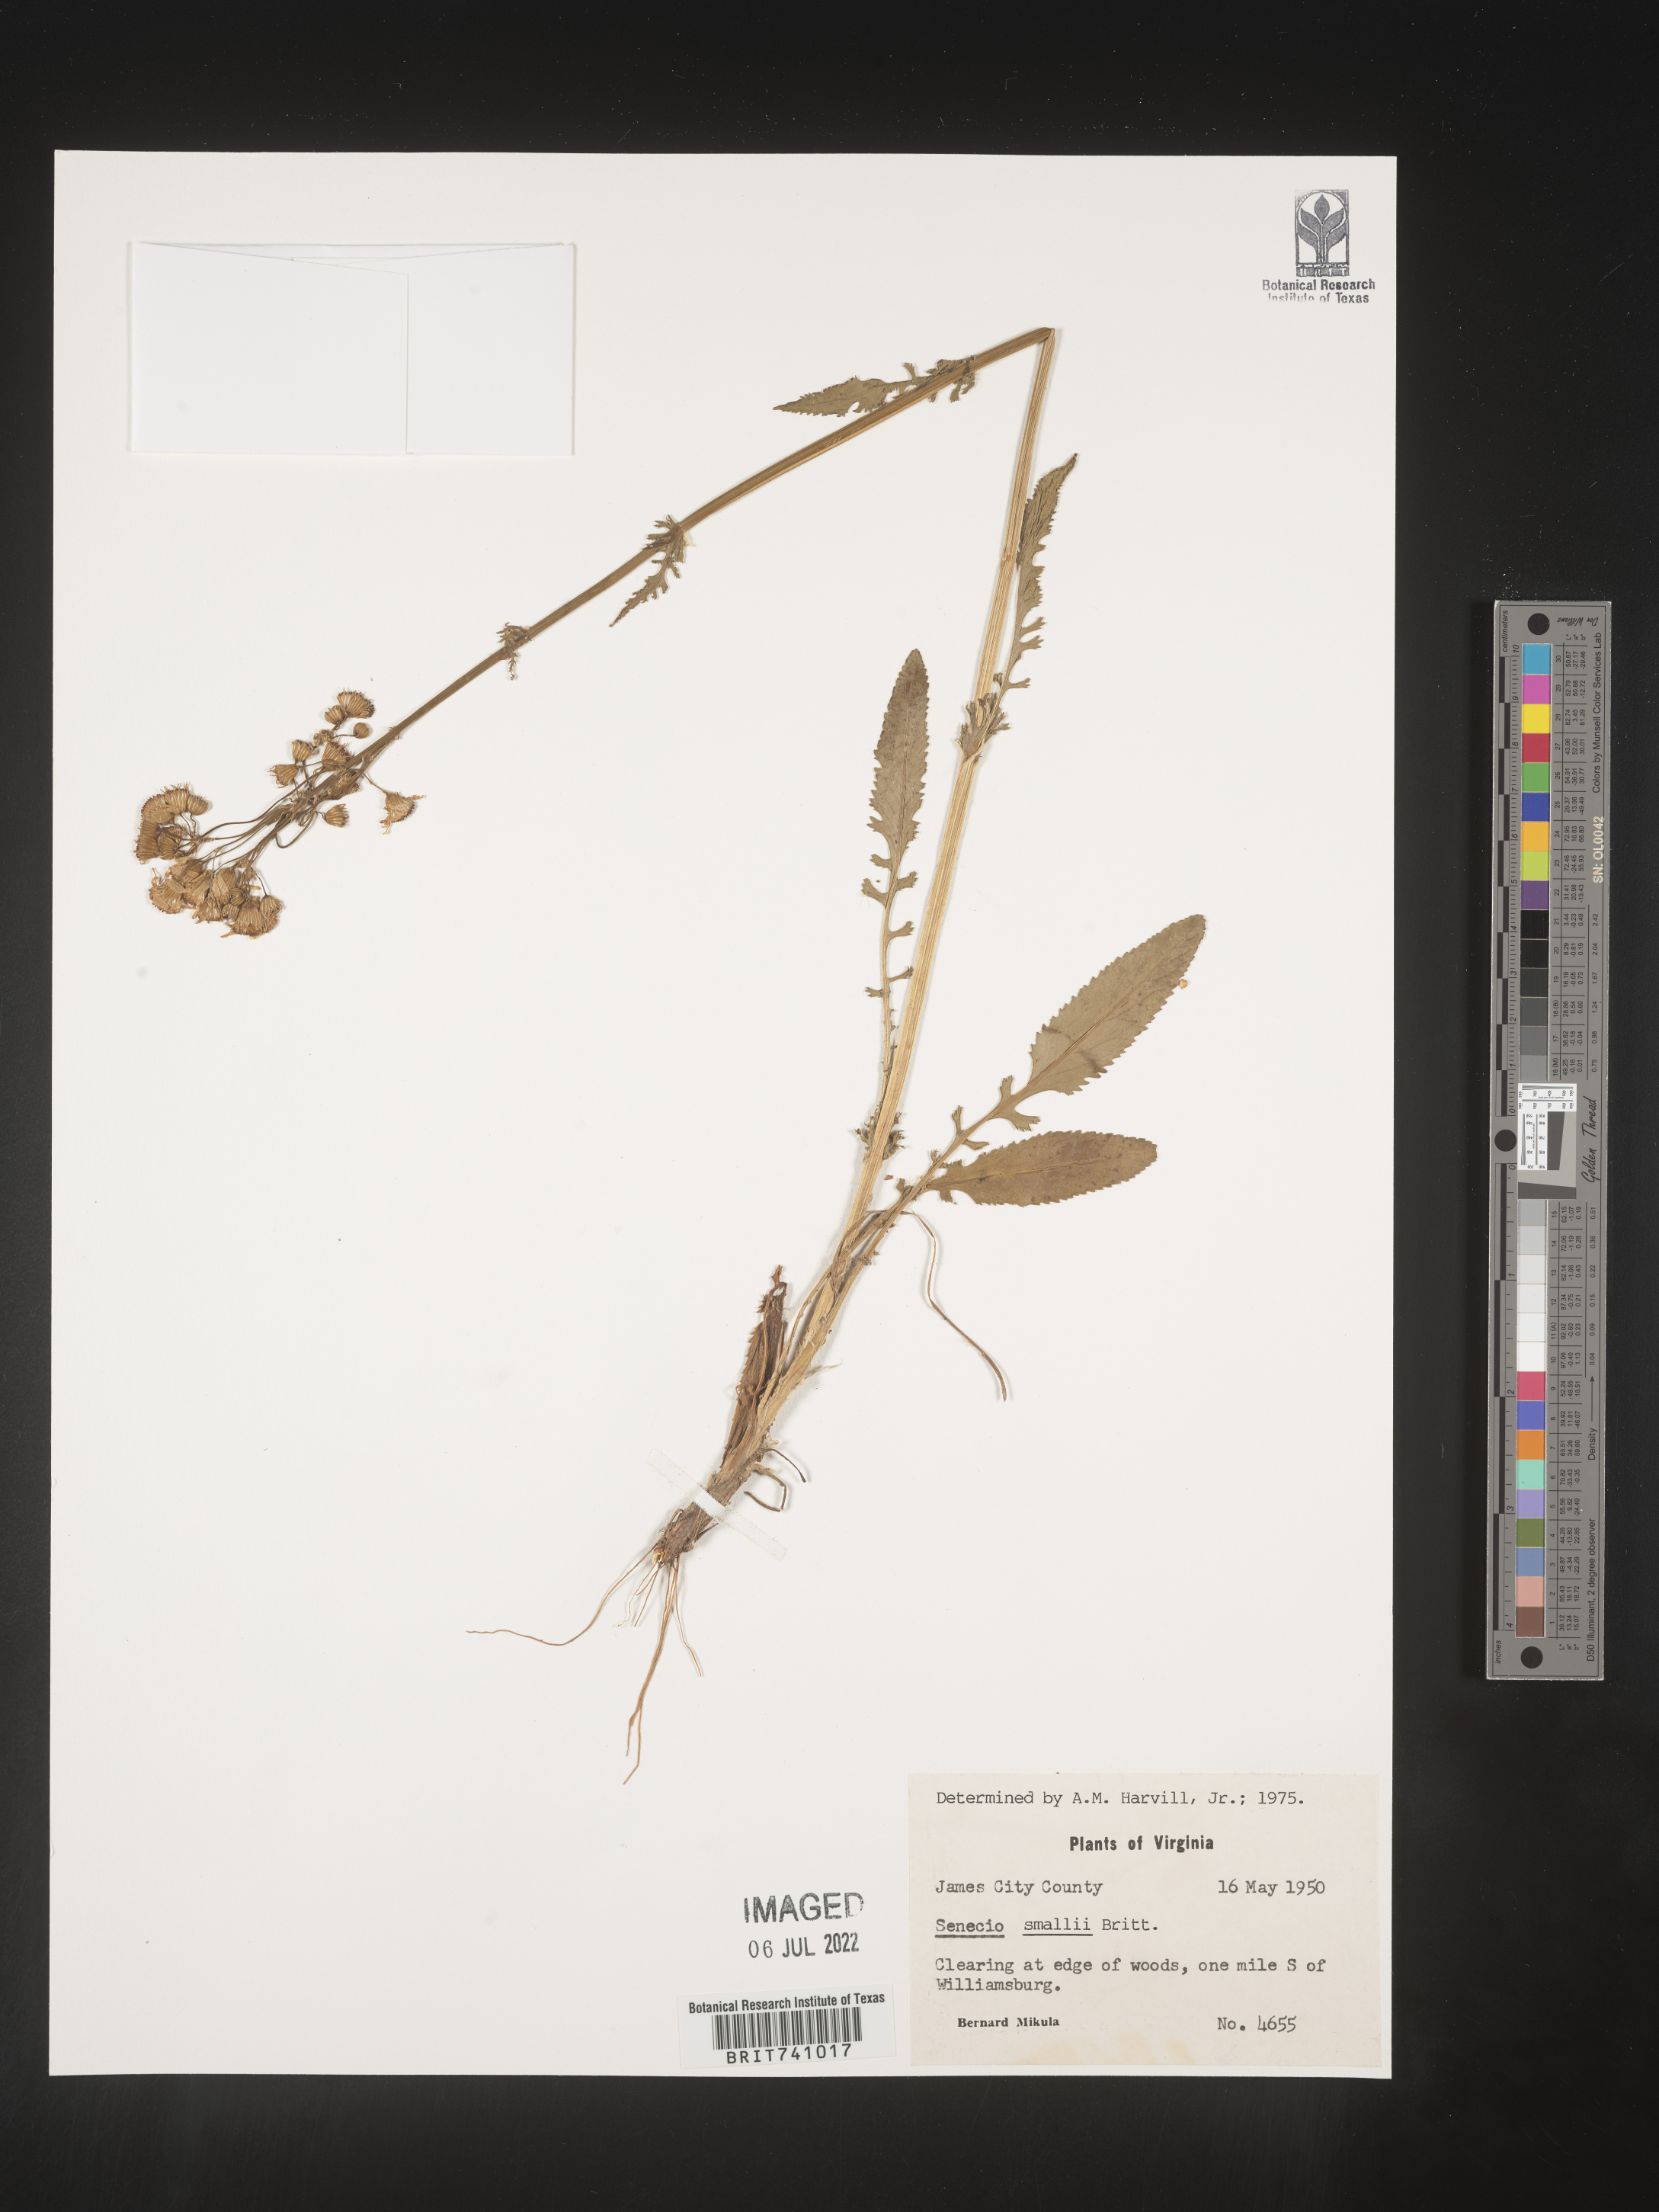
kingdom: Plantae
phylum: Tracheophyta
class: Magnoliopsida
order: Asterales
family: Asteraceae
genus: Packera
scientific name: Packera anonyma
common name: Small ragwort
